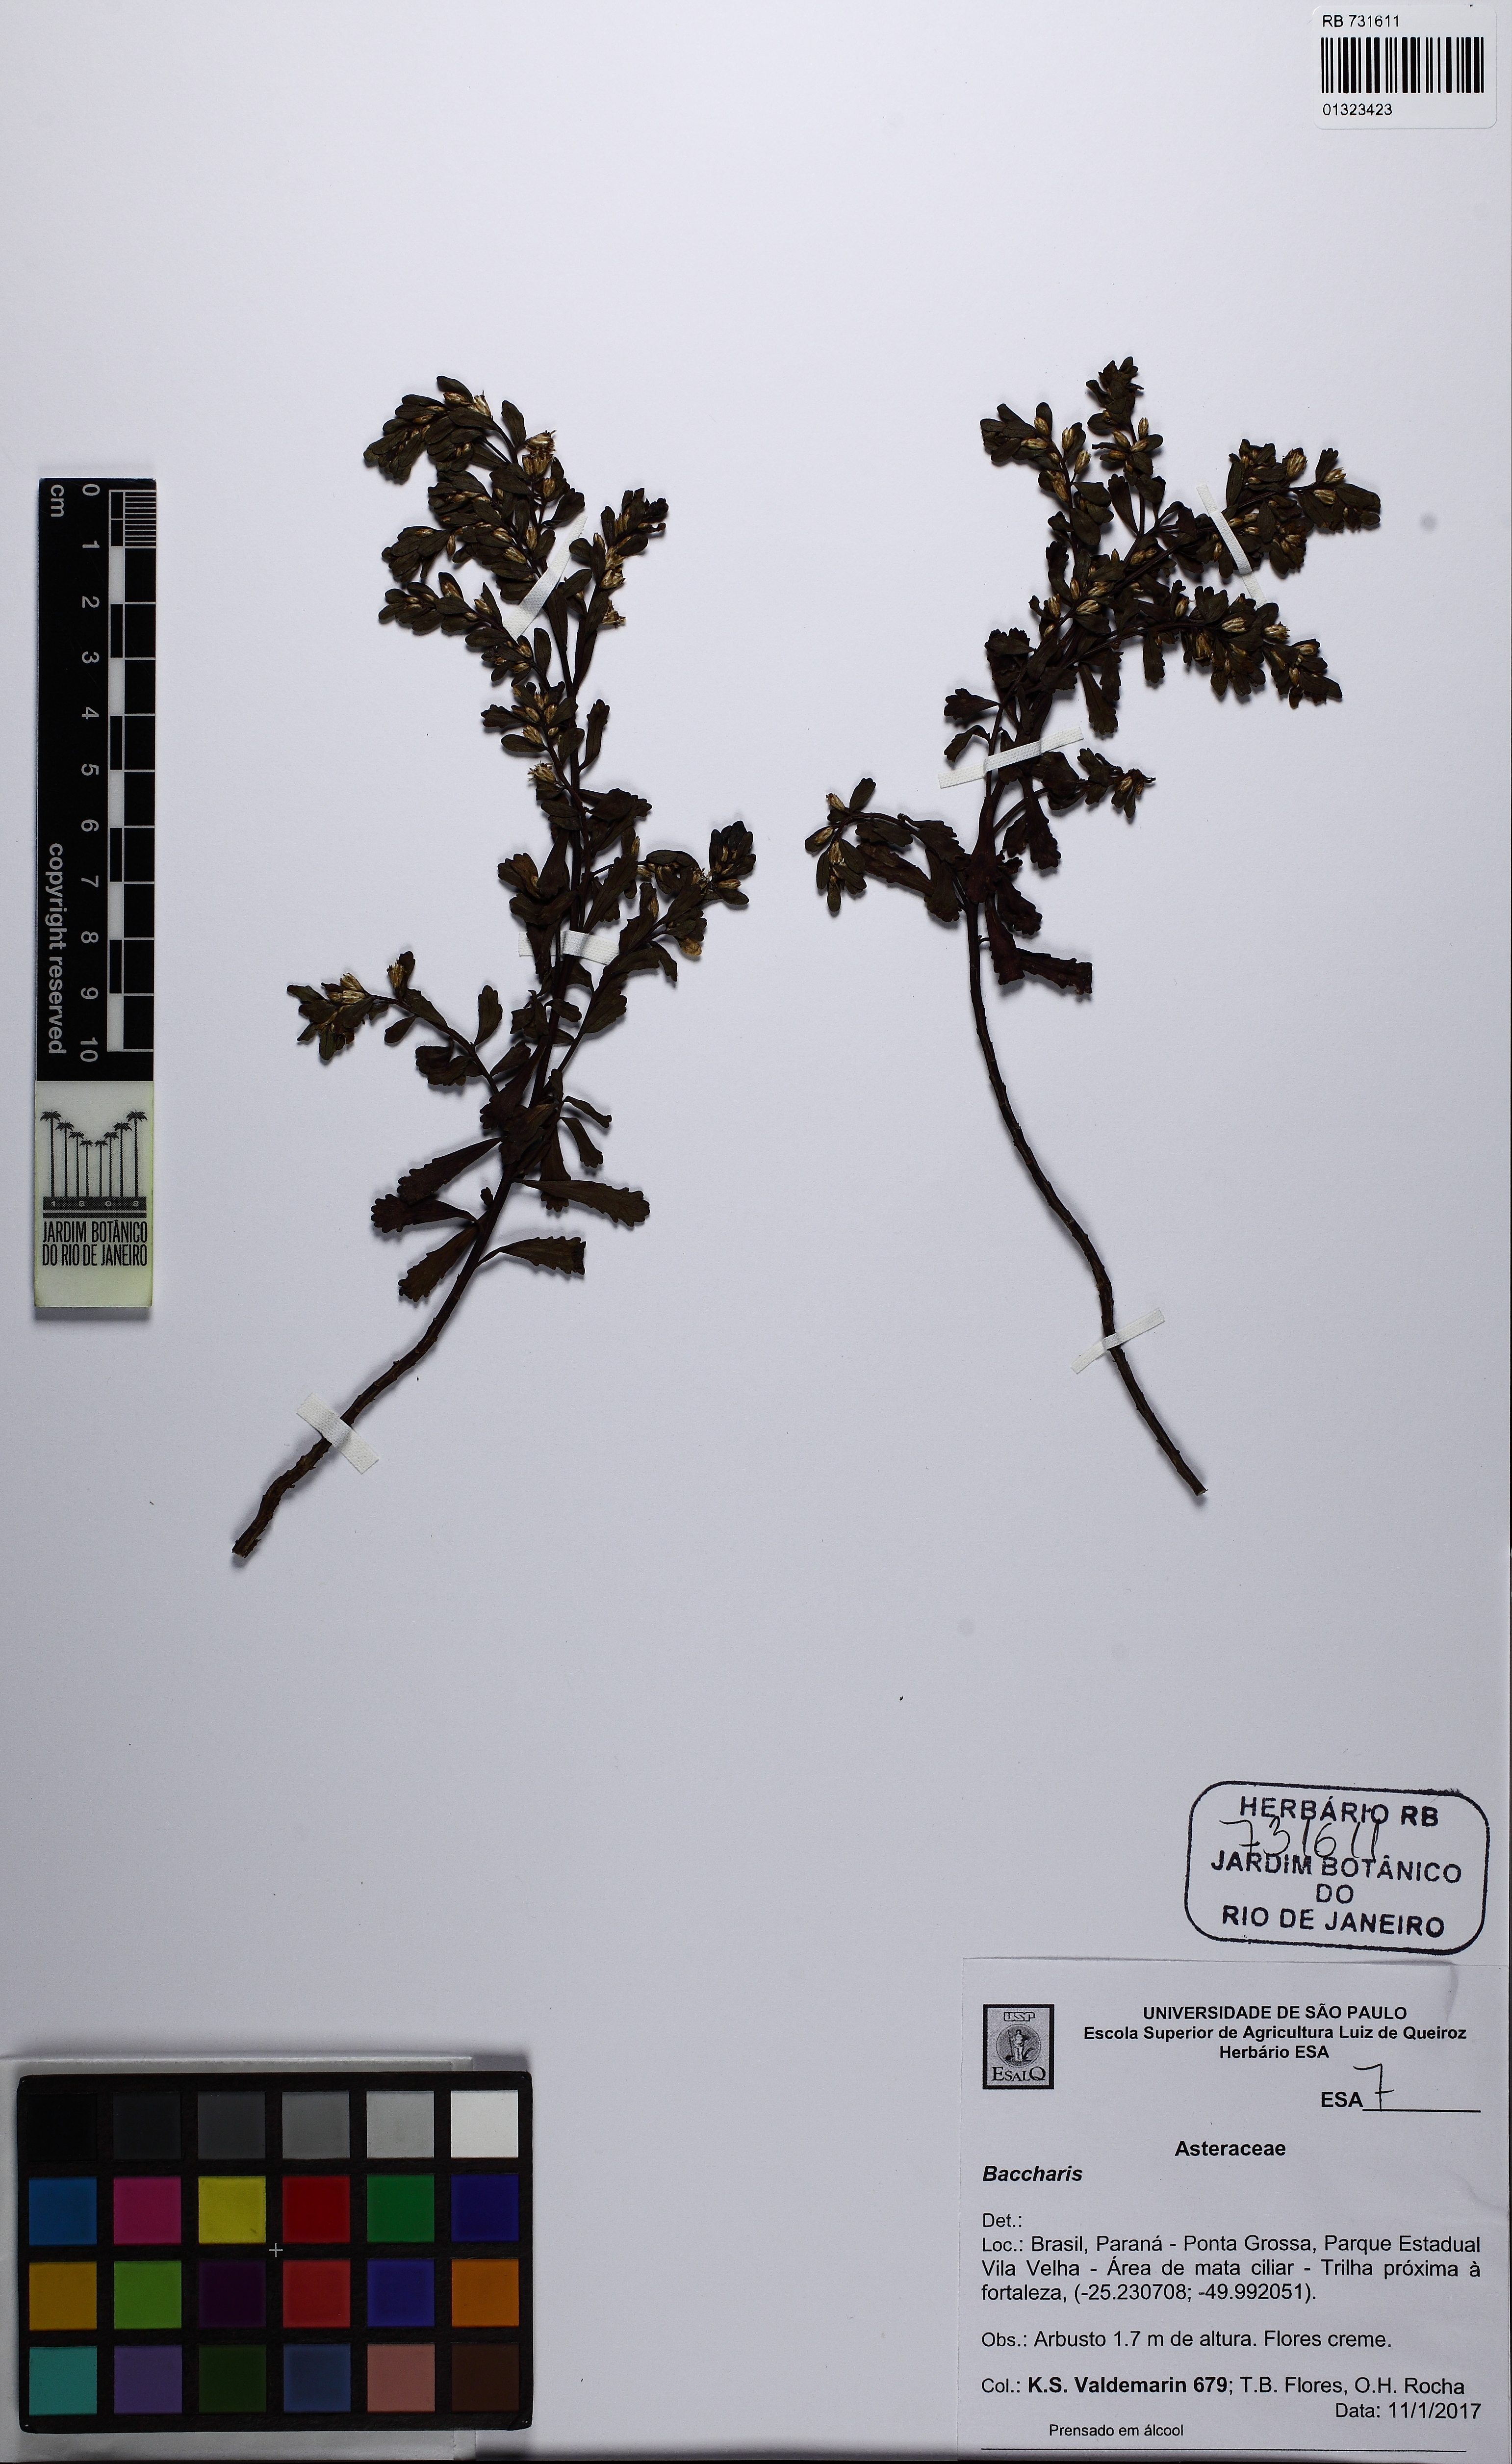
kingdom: Plantae
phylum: Tracheophyta
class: Magnoliopsida
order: Asterales
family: Asteraceae
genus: Baccharis
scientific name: Baccharis pauciflosculosa
